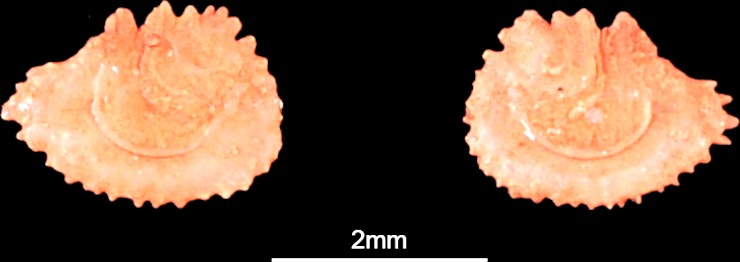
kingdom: Animalia
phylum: Chordata
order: Characiformes
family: Alestidae
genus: Alestes
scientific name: Alestes dentex
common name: Characin
